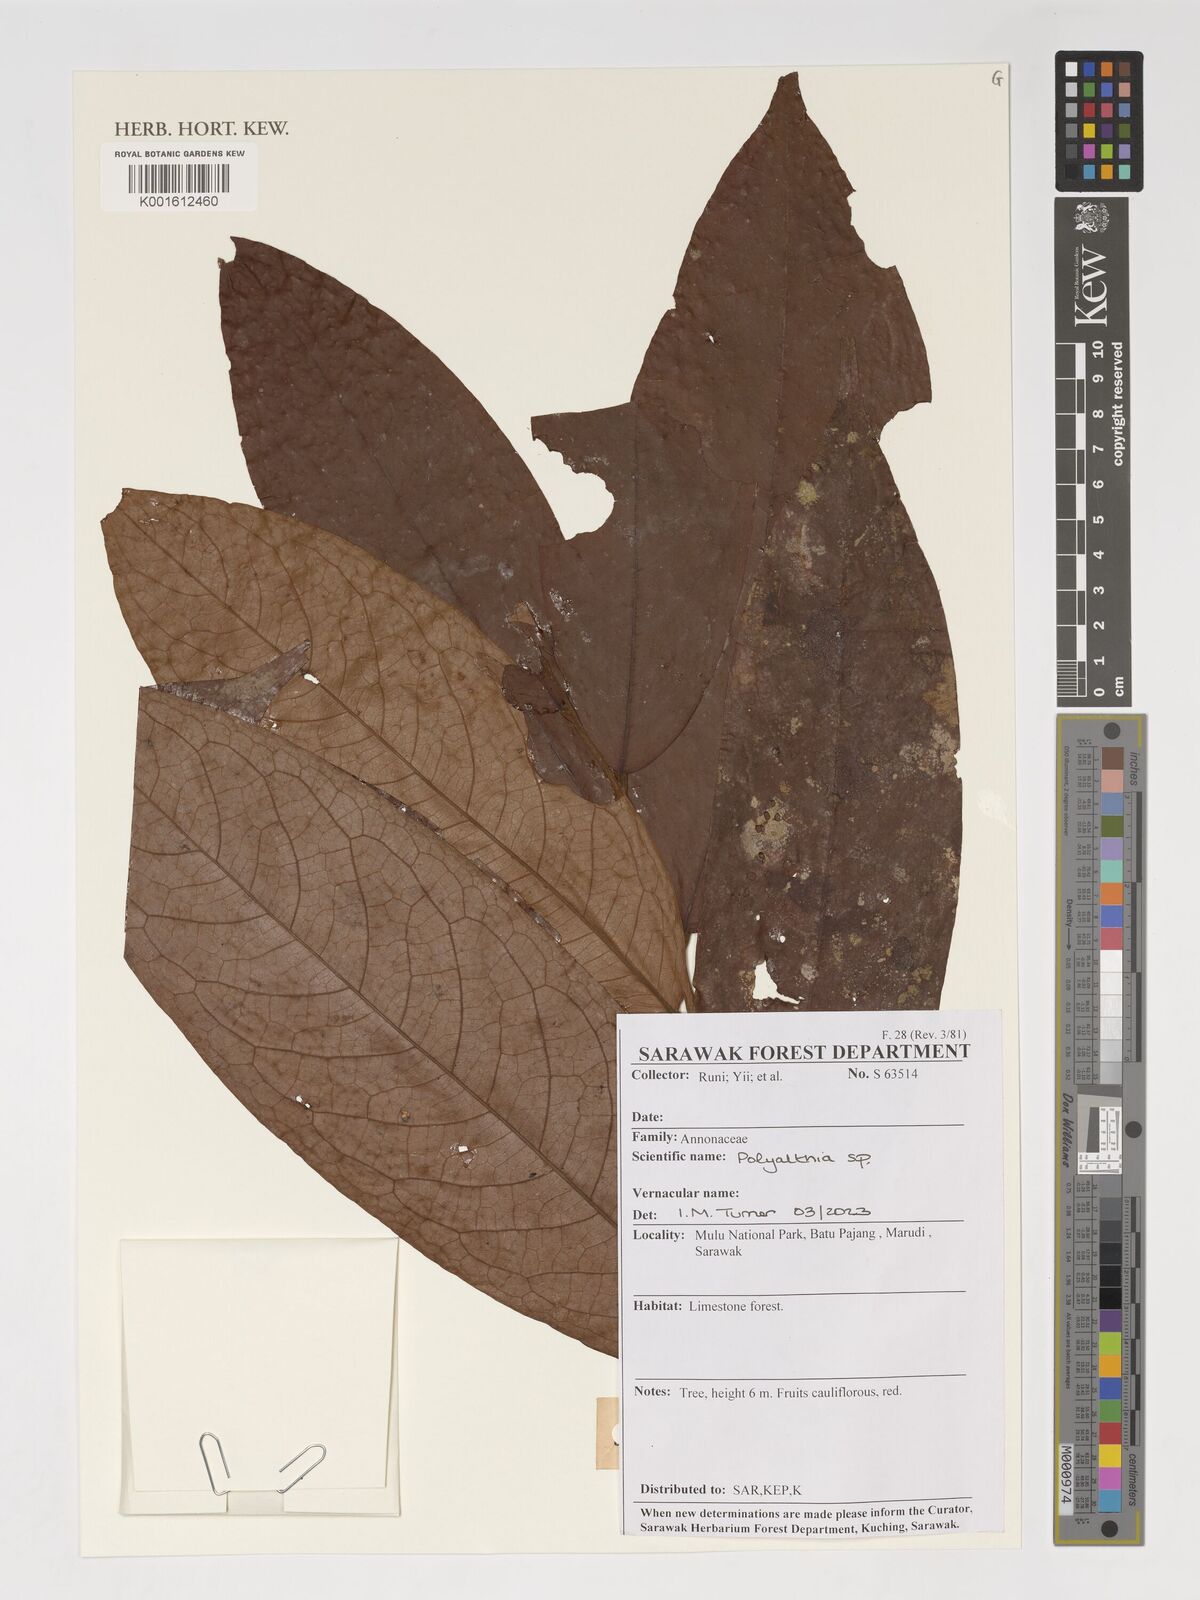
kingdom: Plantae
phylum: Tracheophyta
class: Magnoliopsida
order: Magnoliales
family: Annonaceae
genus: Polyalthia
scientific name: Polyalthia
